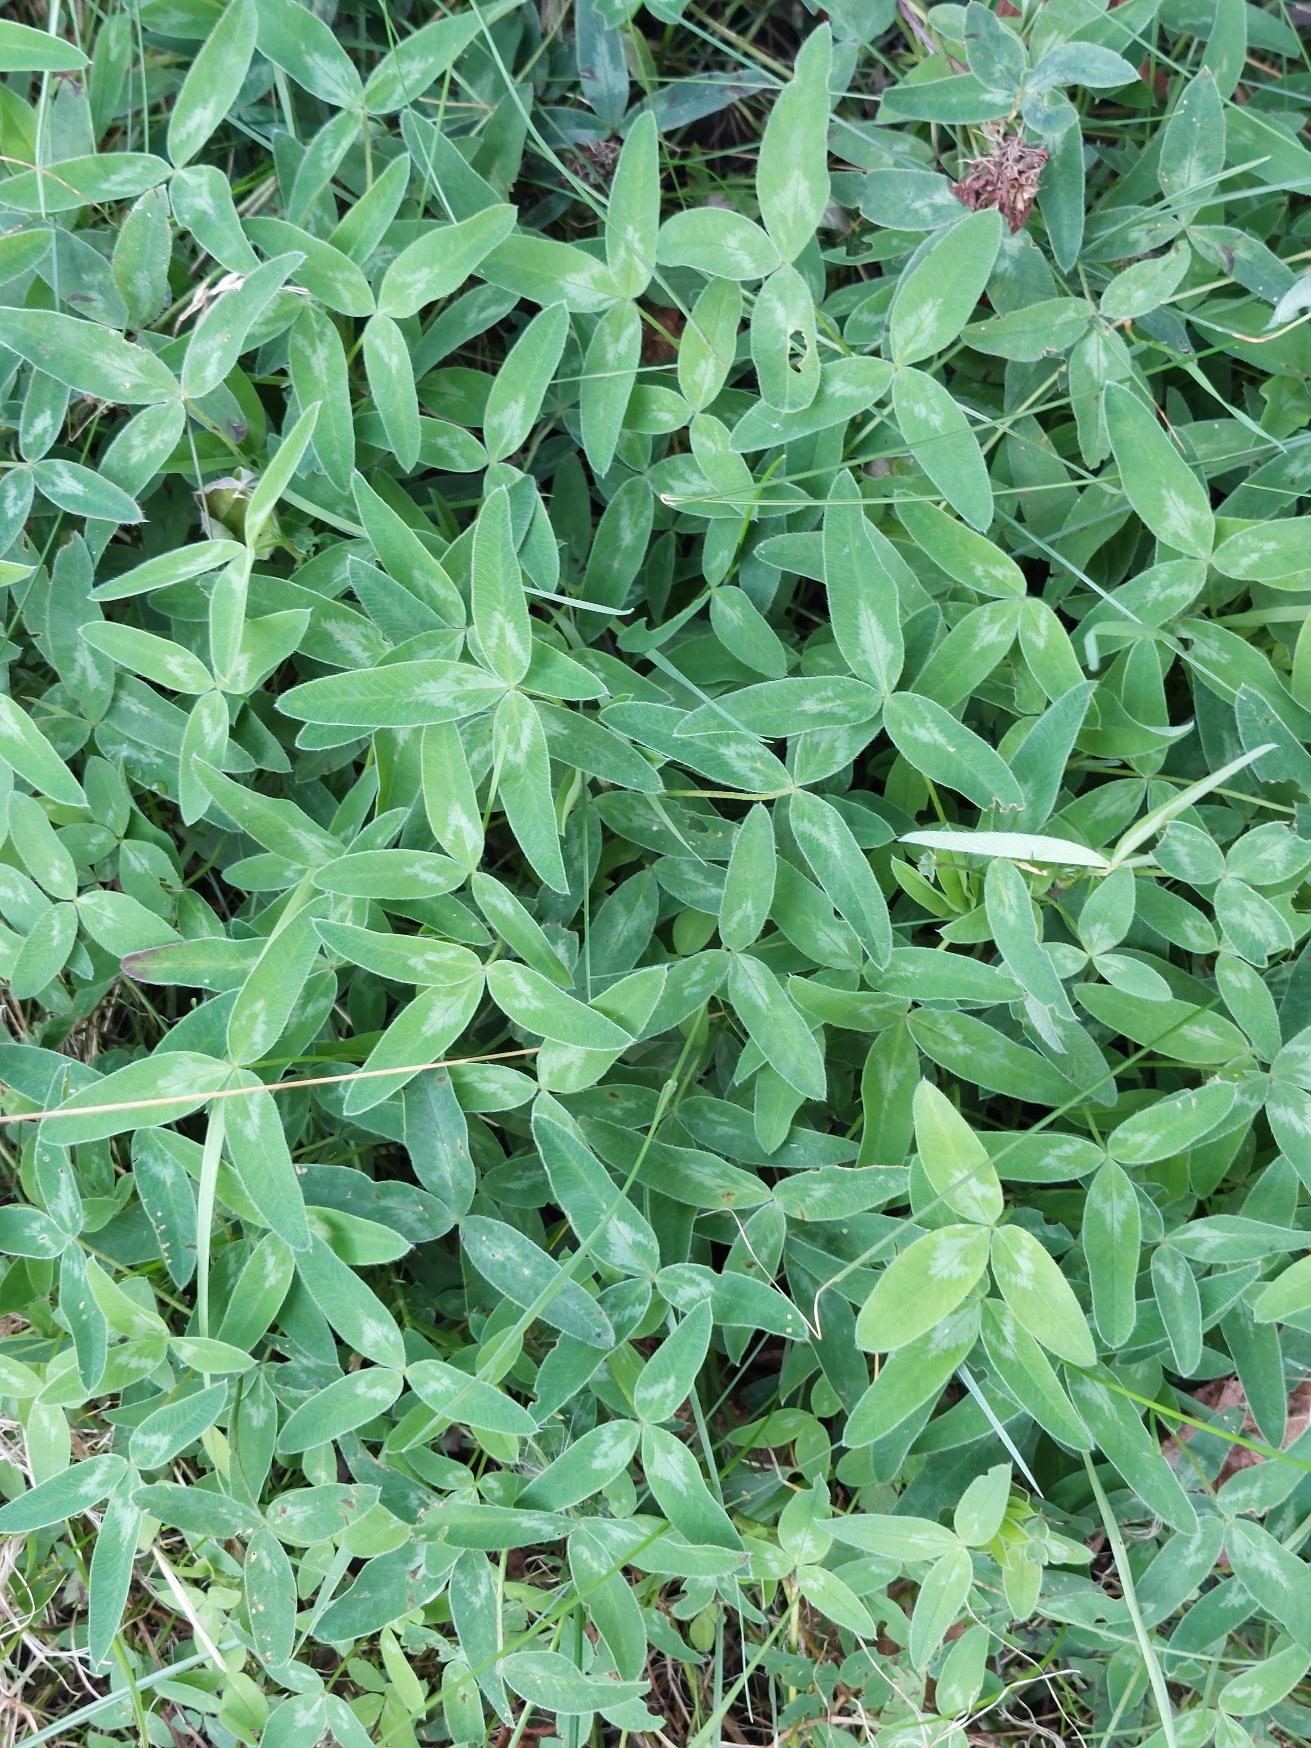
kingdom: Plantae
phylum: Tracheophyta
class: Magnoliopsida
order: Fabales
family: Fabaceae
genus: Trifolium
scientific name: Trifolium medium
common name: Bugtet kløver
